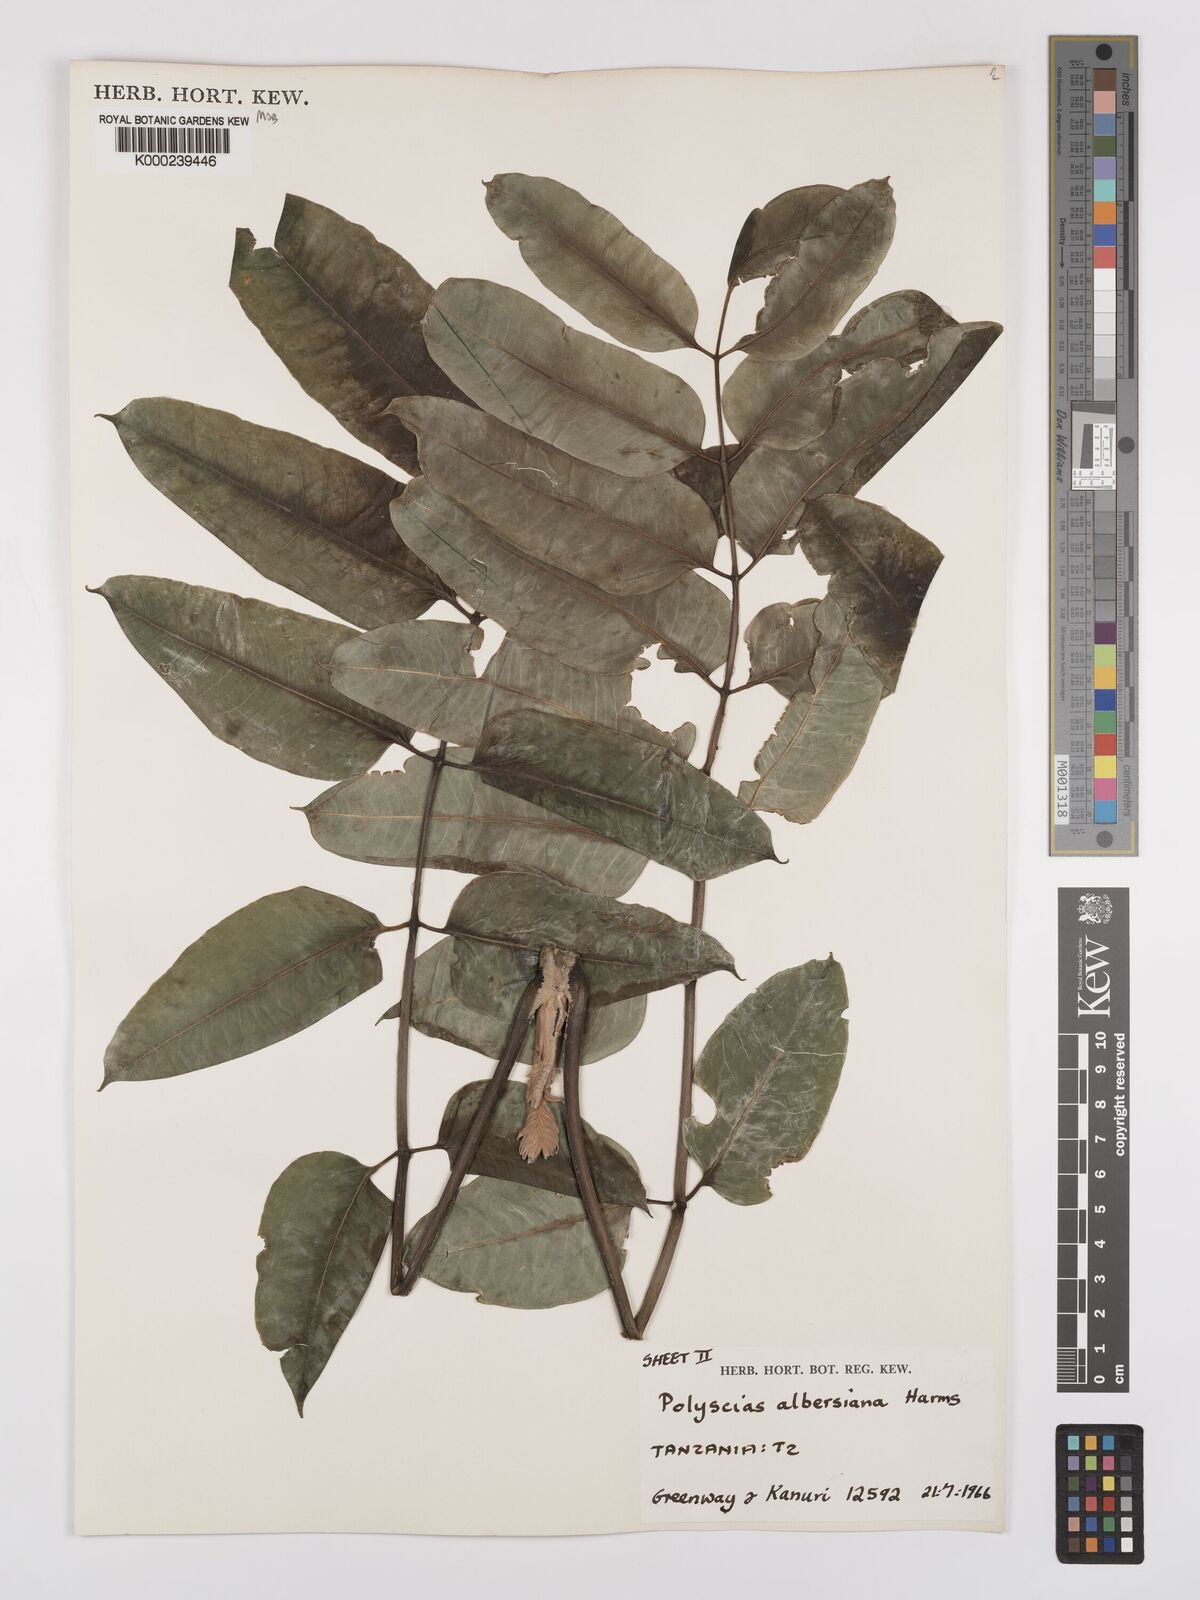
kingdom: Plantae
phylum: Tracheophyta
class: Magnoliopsida
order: Apiales
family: Araliaceae
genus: Polyscias
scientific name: Polyscias albersiana
